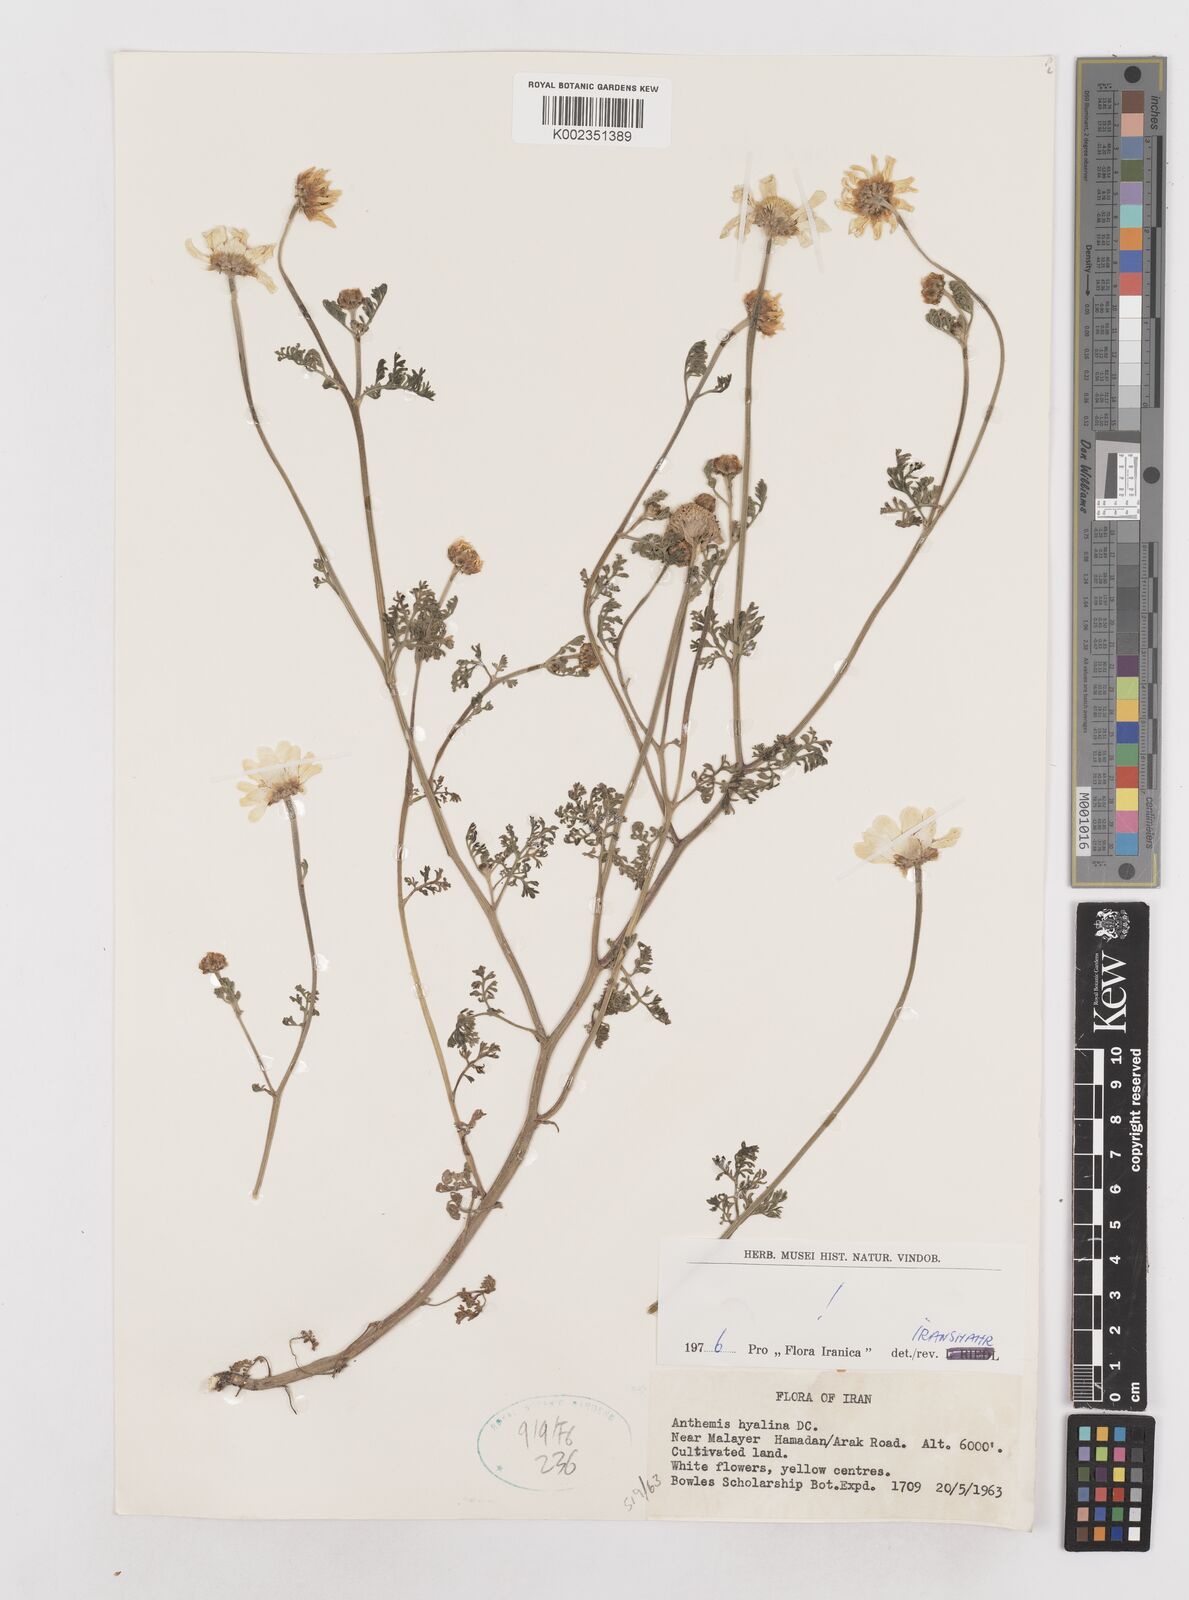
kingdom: Plantae
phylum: Tracheophyta
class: Magnoliopsida
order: Asterales
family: Asteraceae
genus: Anthemis
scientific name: Anthemis hyalina
